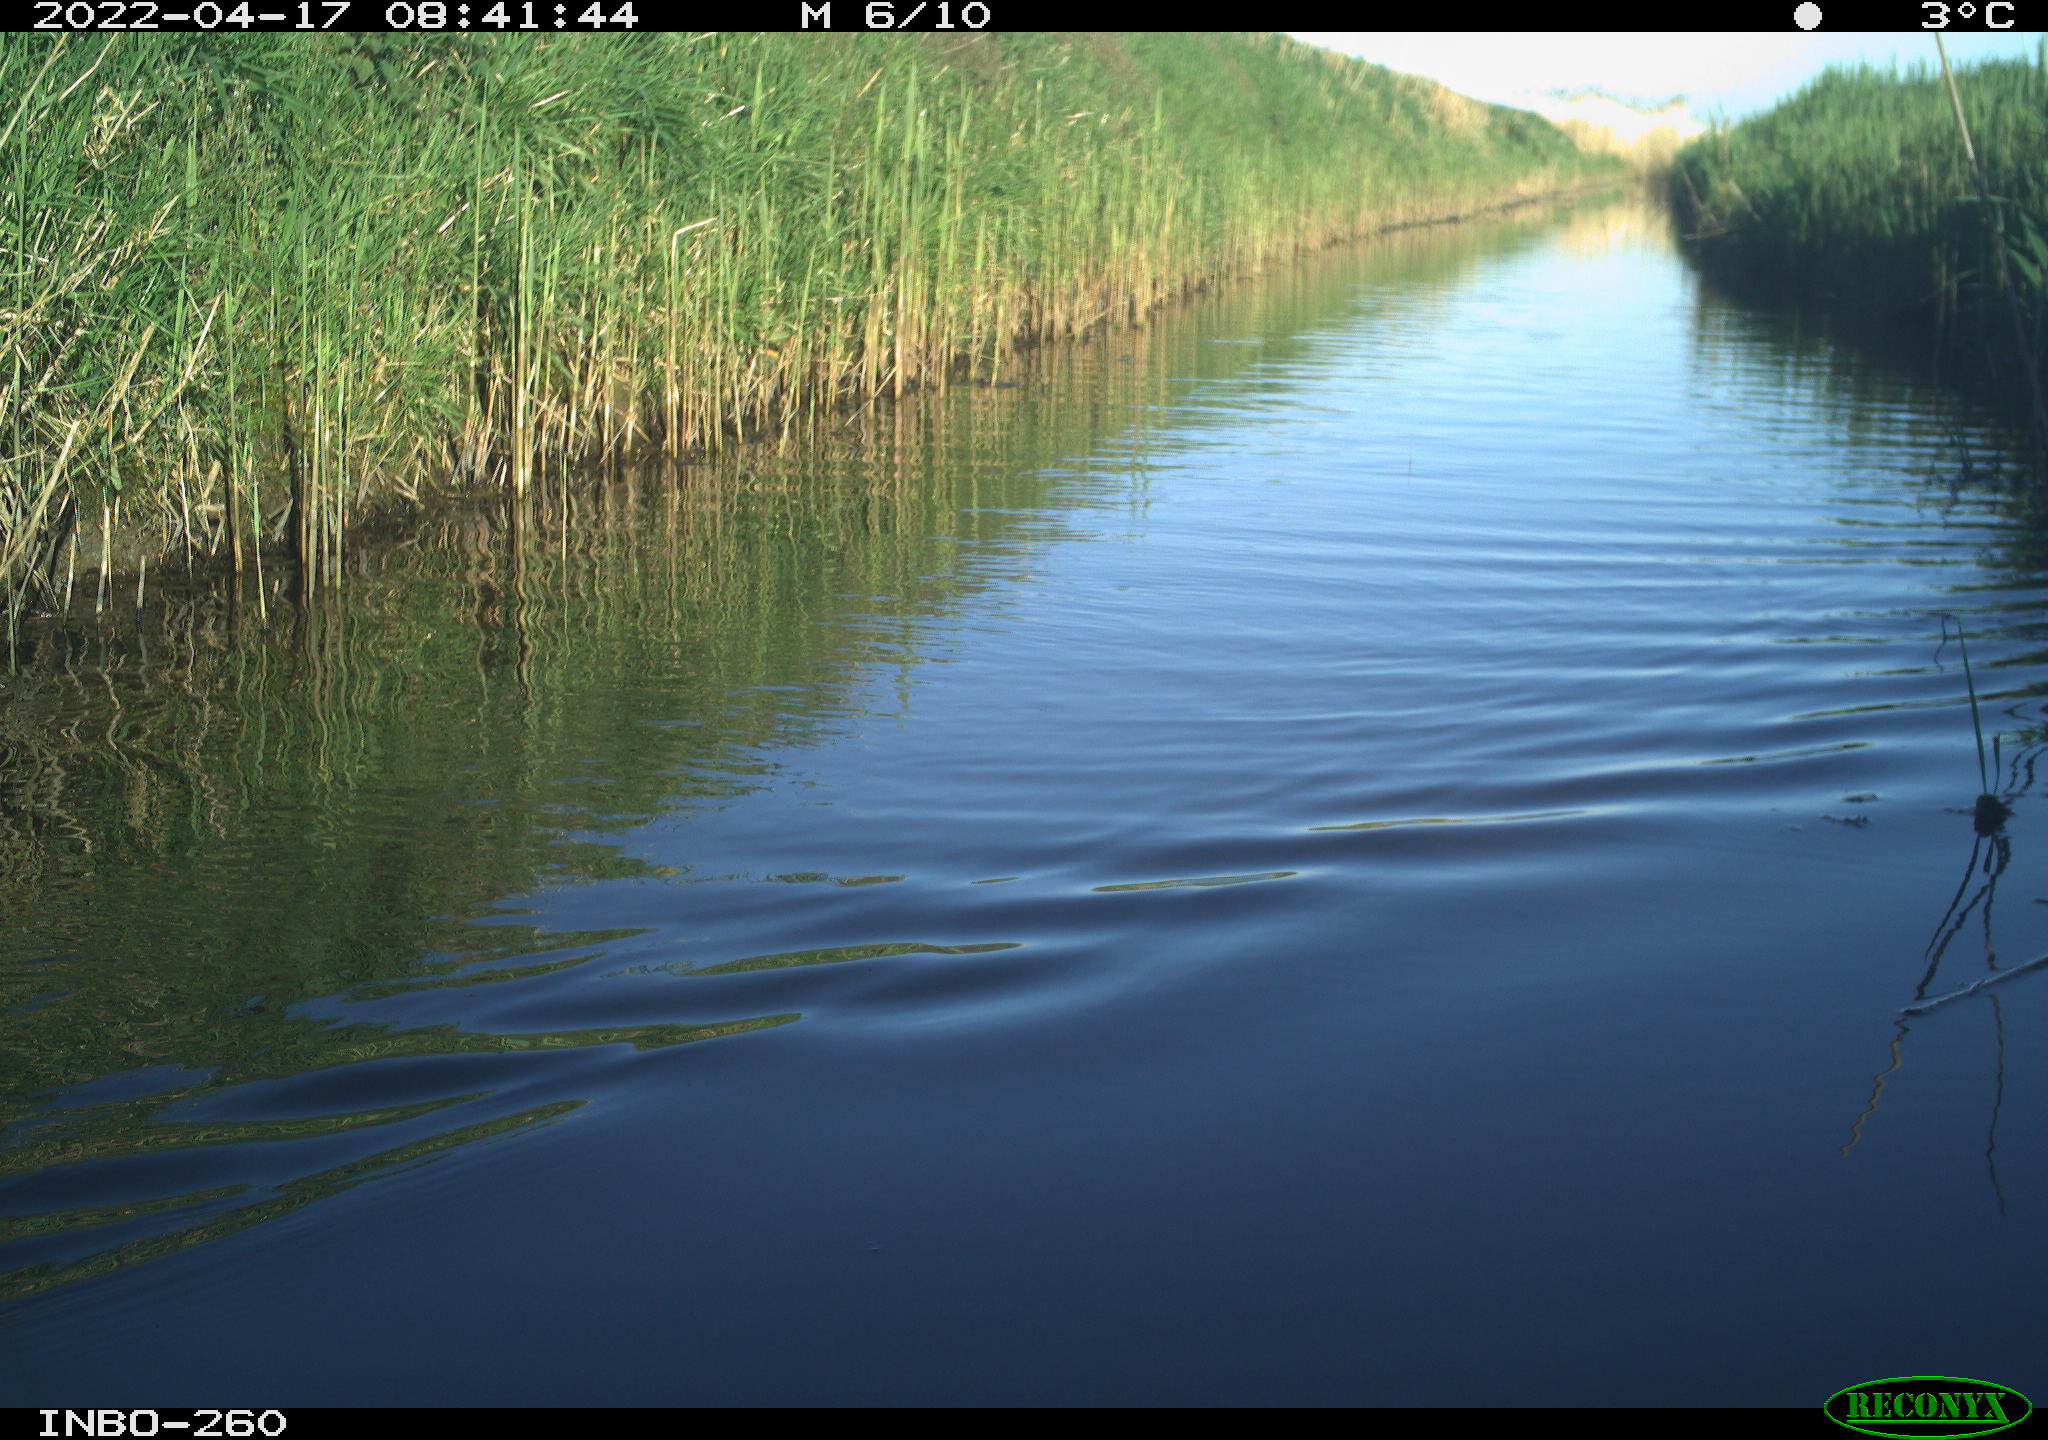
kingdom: Animalia
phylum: Chordata
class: Aves
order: Gruiformes
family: Rallidae
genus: Fulica
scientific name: Fulica atra
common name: Eurasian coot
